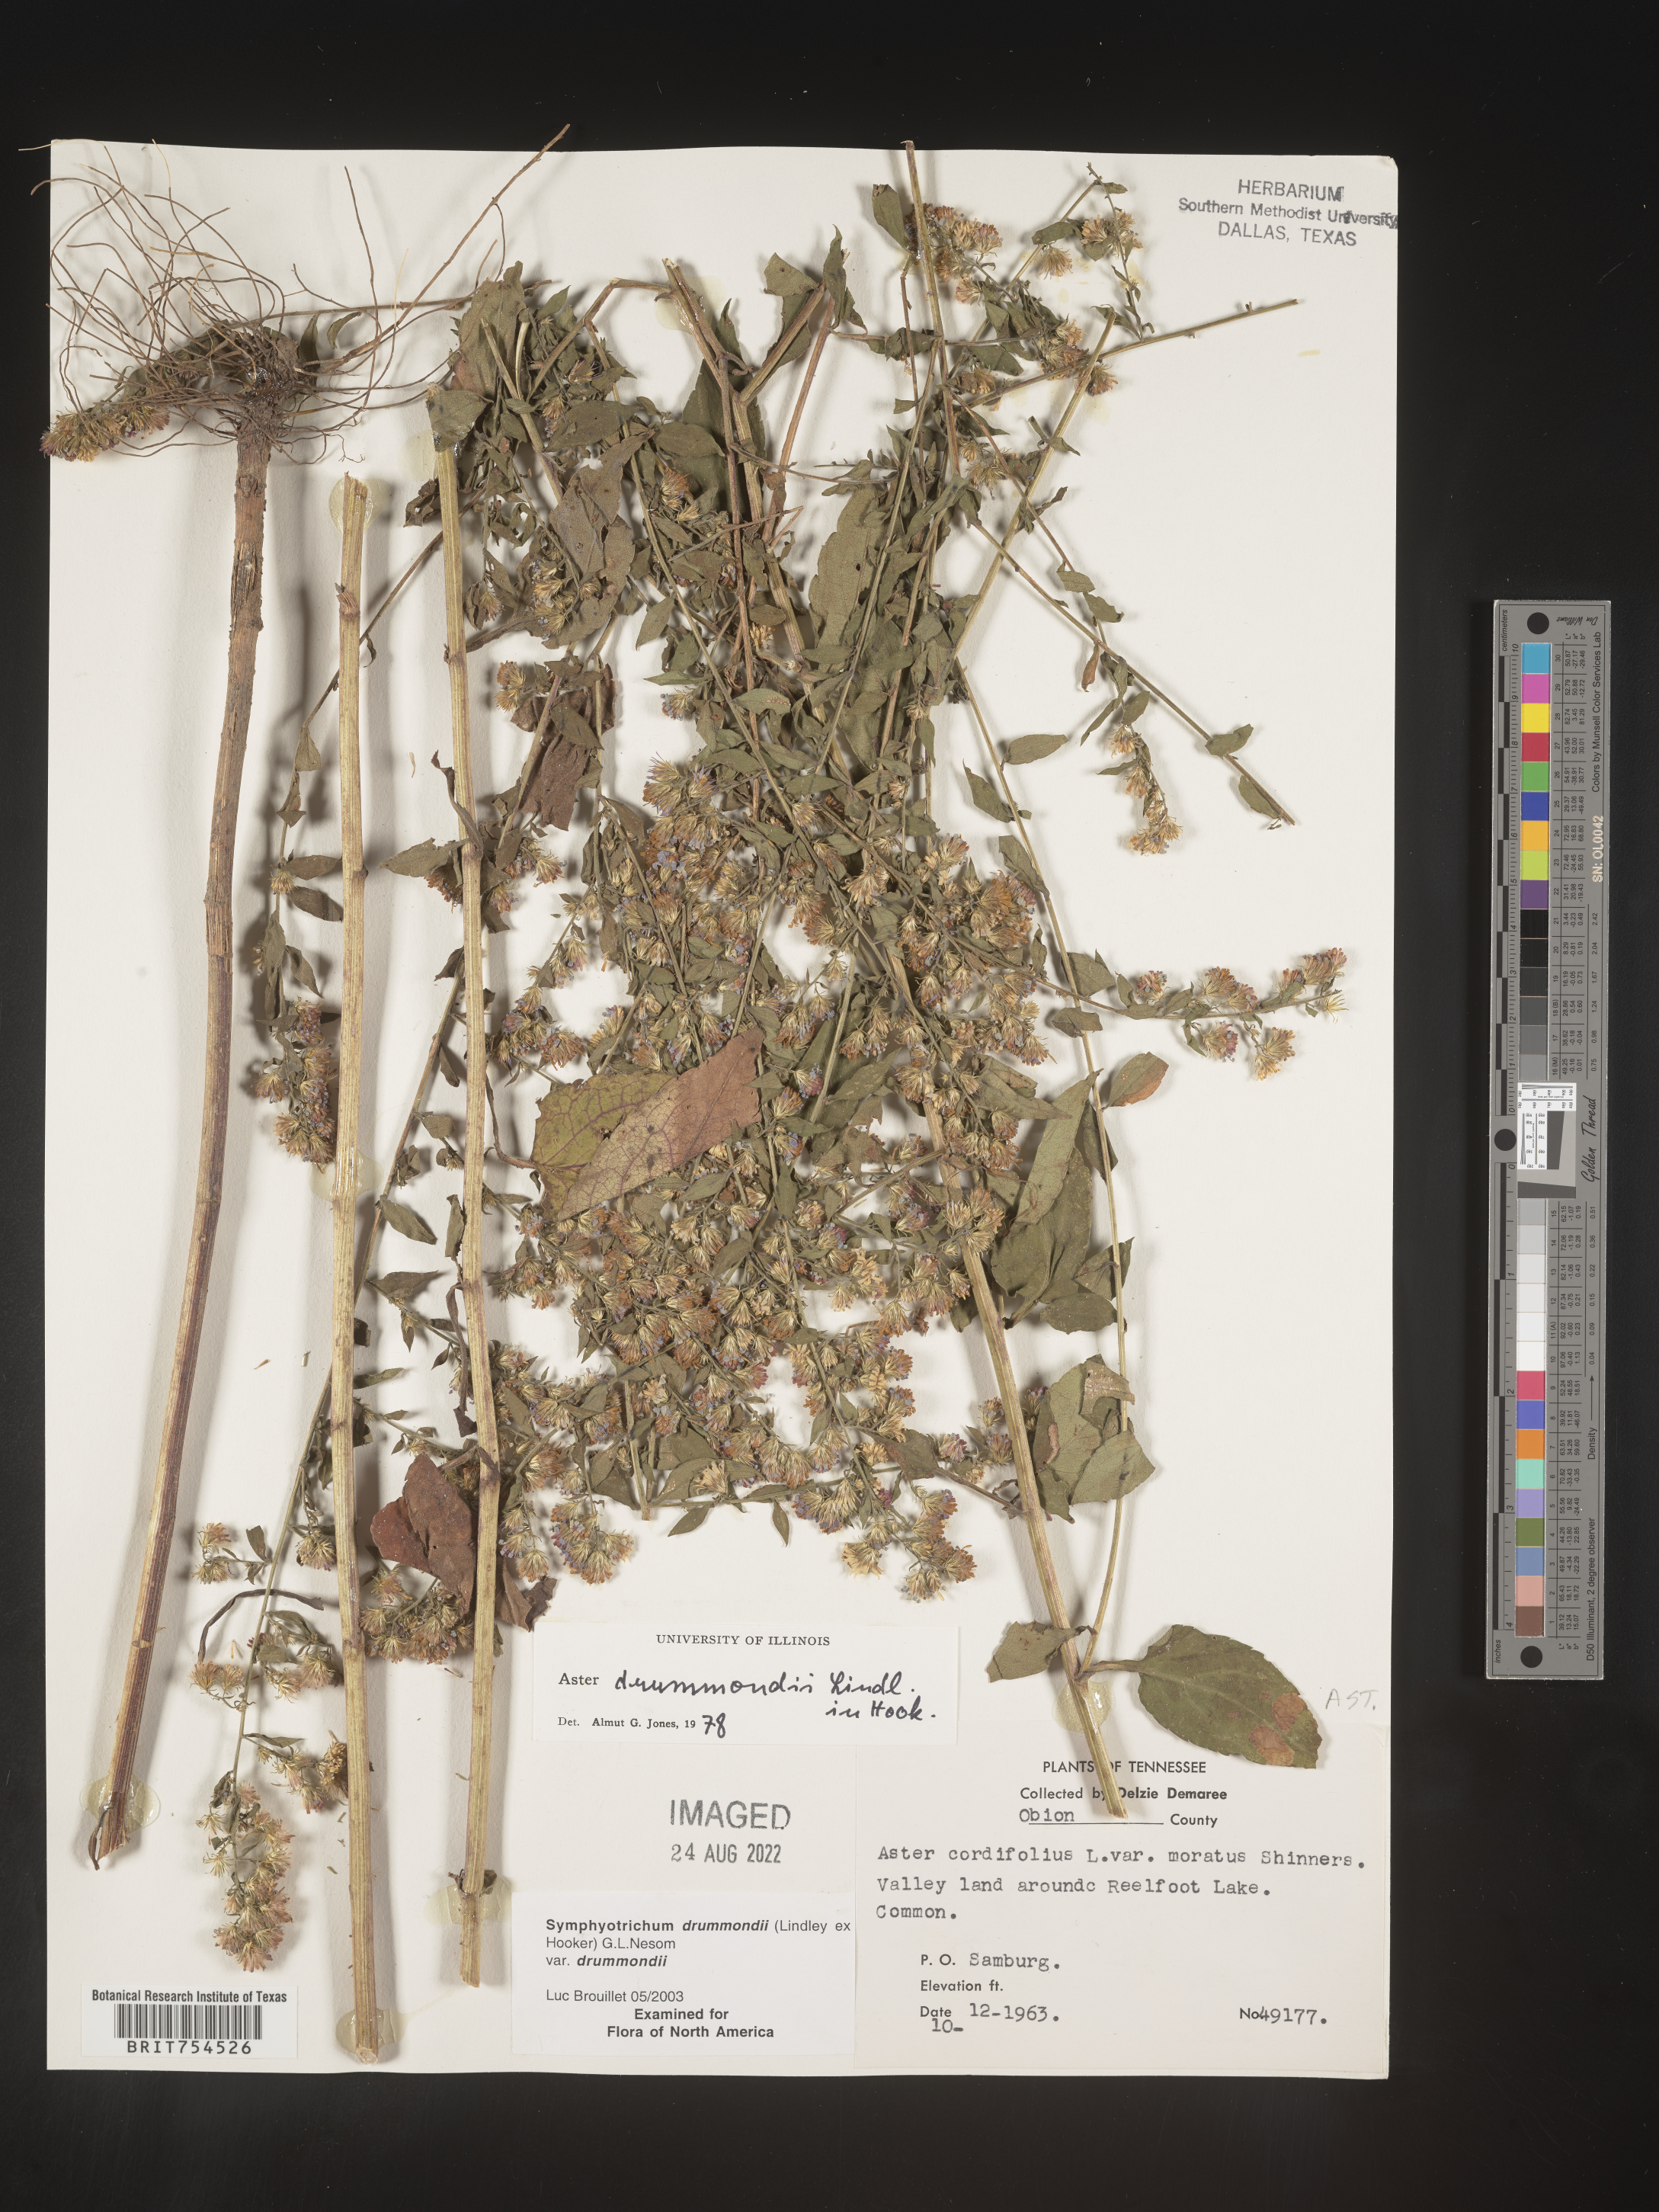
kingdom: Plantae
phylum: Tracheophyta
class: Magnoliopsida
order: Asterales
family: Asteraceae
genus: Symphyotrichum
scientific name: Symphyotrichum drummondii
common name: Drummond's aster
